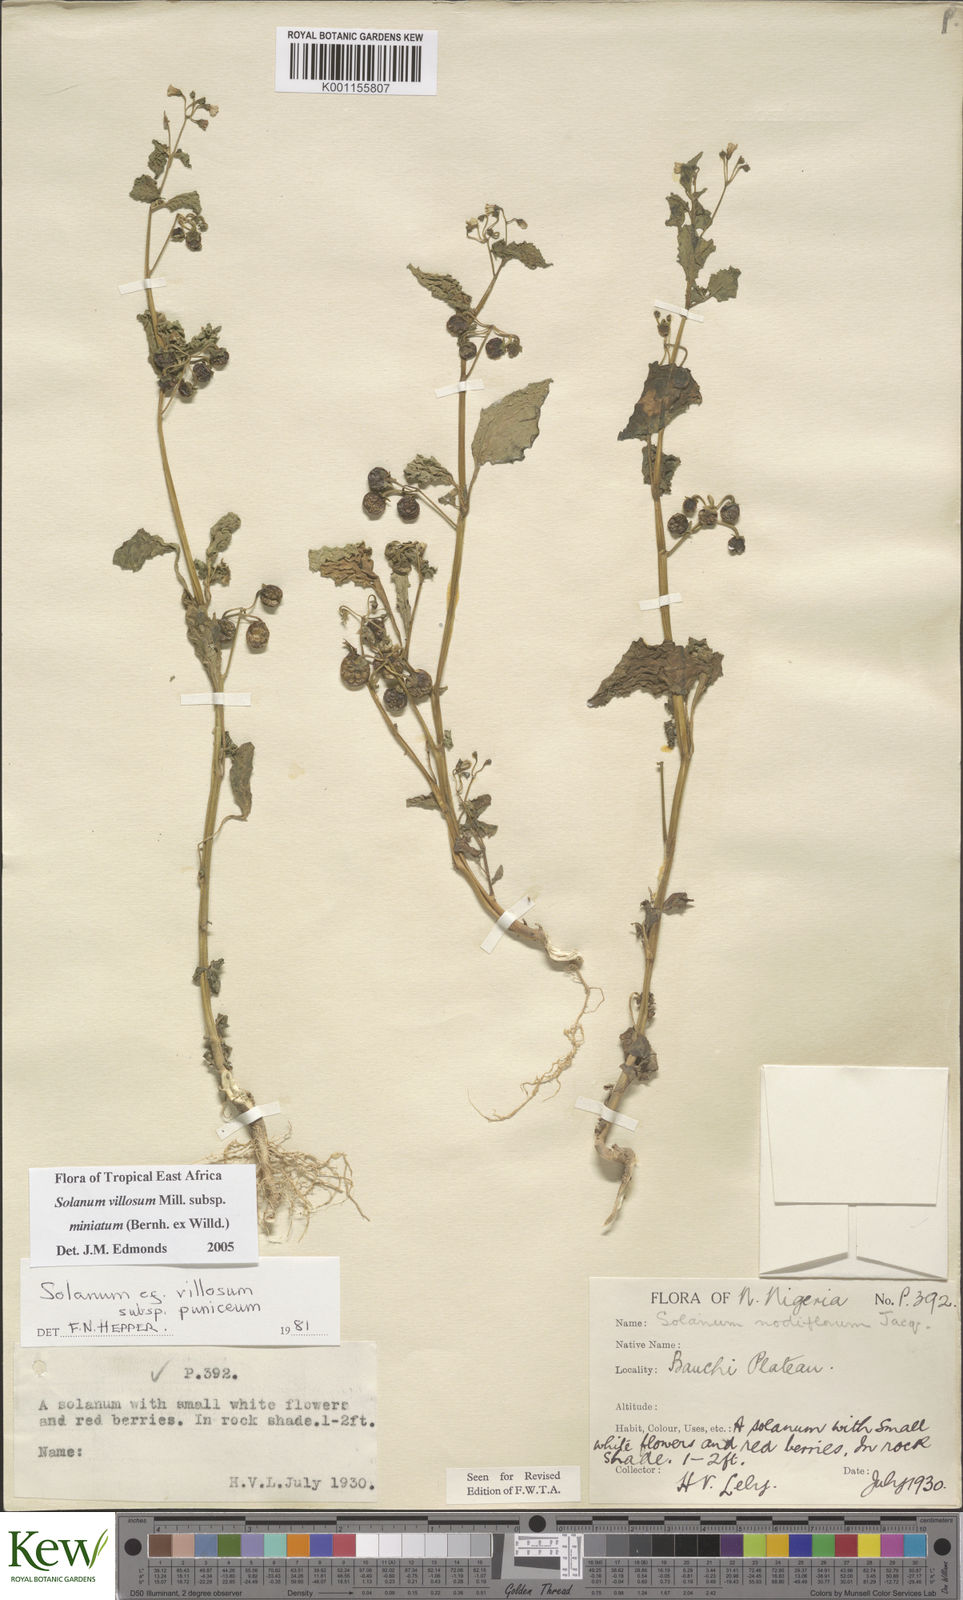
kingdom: Plantae
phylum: Tracheophyta
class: Magnoliopsida
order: Solanales
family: Solanaceae
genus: Solanum
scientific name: Solanum villosum
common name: Red nightshade
